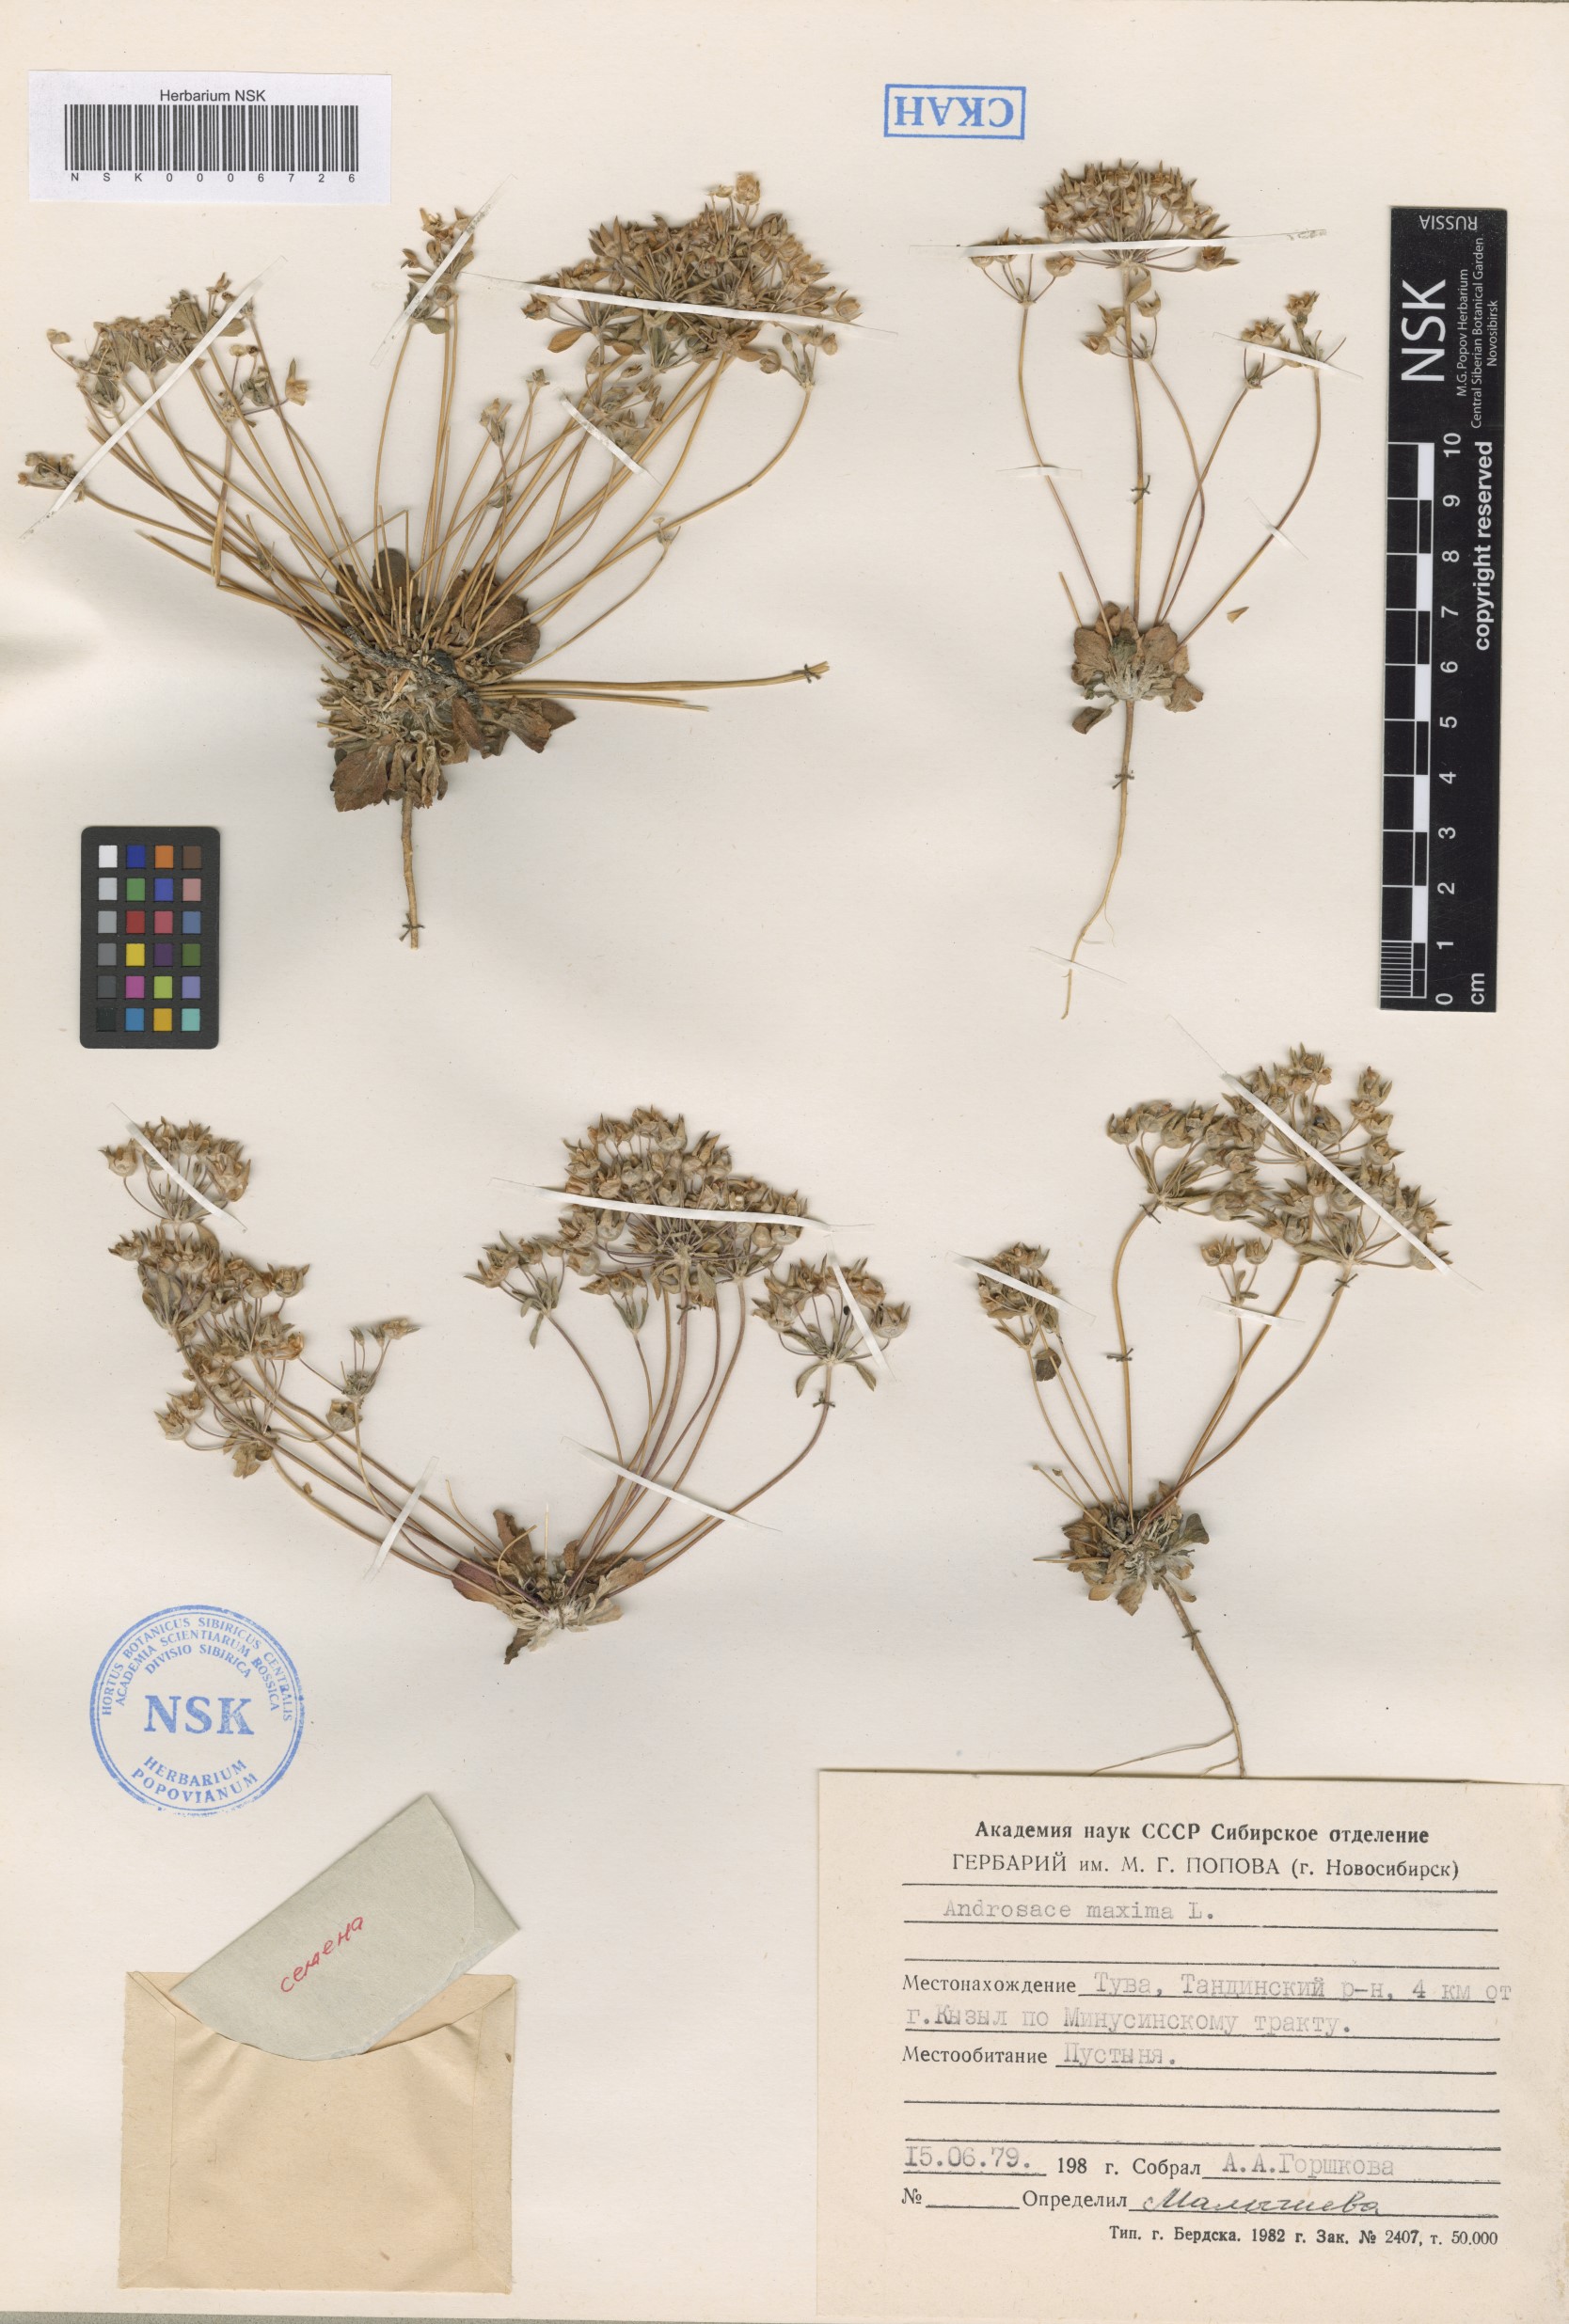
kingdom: Plantae
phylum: Tracheophyta
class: Magnoliopsida
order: Ericales
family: Primulaceae
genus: Androsace
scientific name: Androsace maxima
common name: Annual androsace
